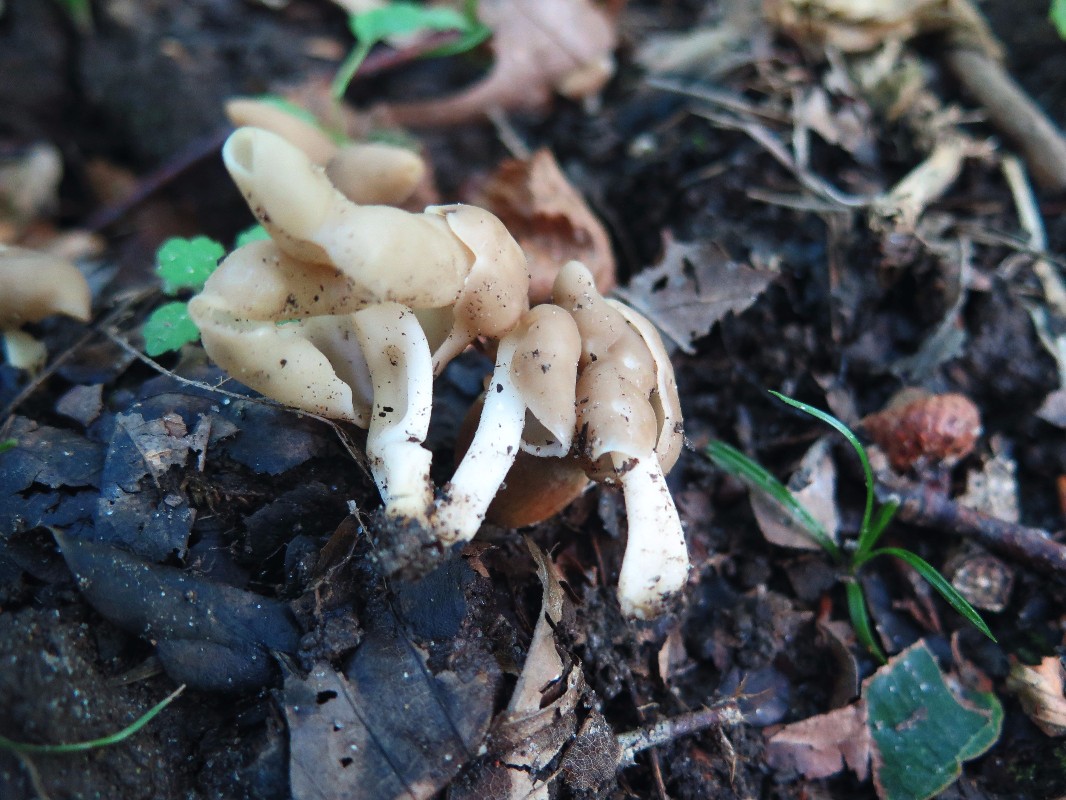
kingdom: Fungi
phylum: Ascomycota
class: Pezizomycetes
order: Pezizales
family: Helvellaceae
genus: Helvella
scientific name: Helvella elastica
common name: elastik-foldhat
